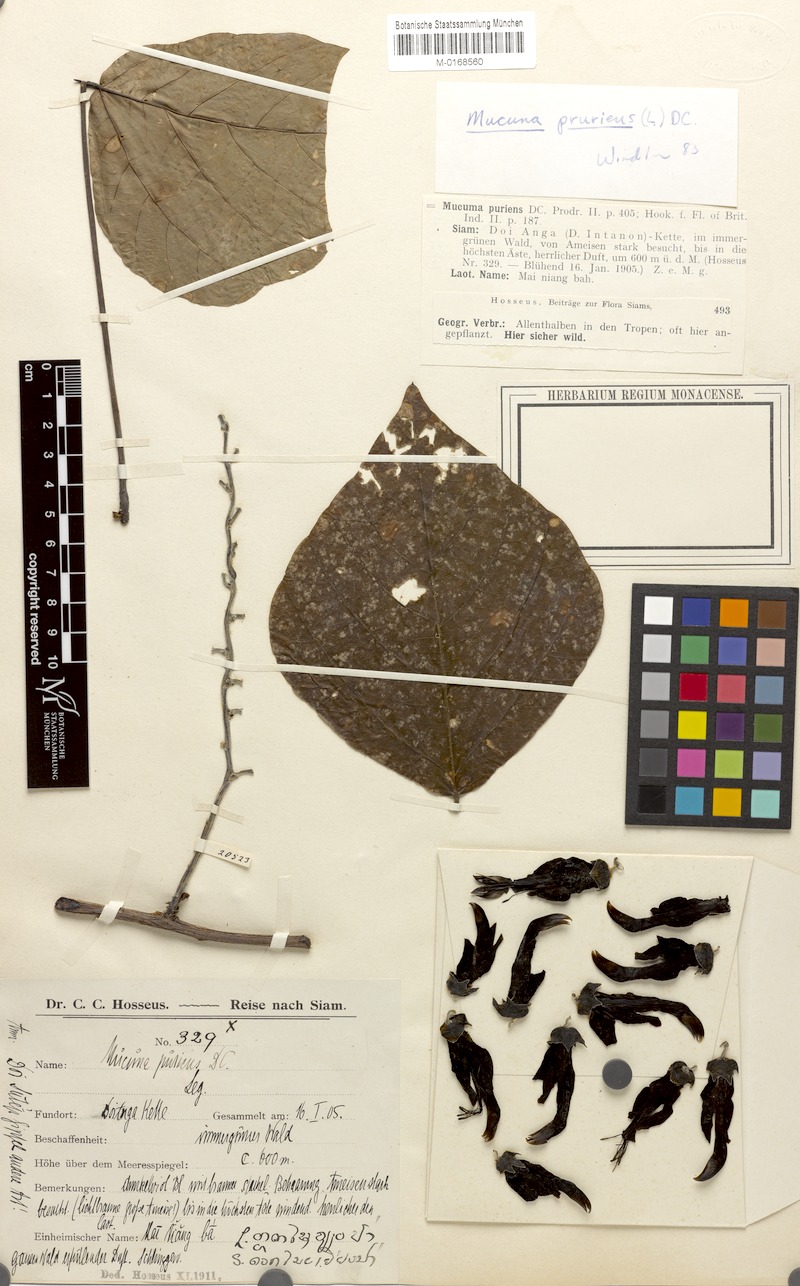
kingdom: Plantae
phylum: Tracheophyta
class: Magnoliopsida
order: Fabales
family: Fabaceae
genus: Mucuna
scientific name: Mucuna pruriens
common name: Cow-itch
